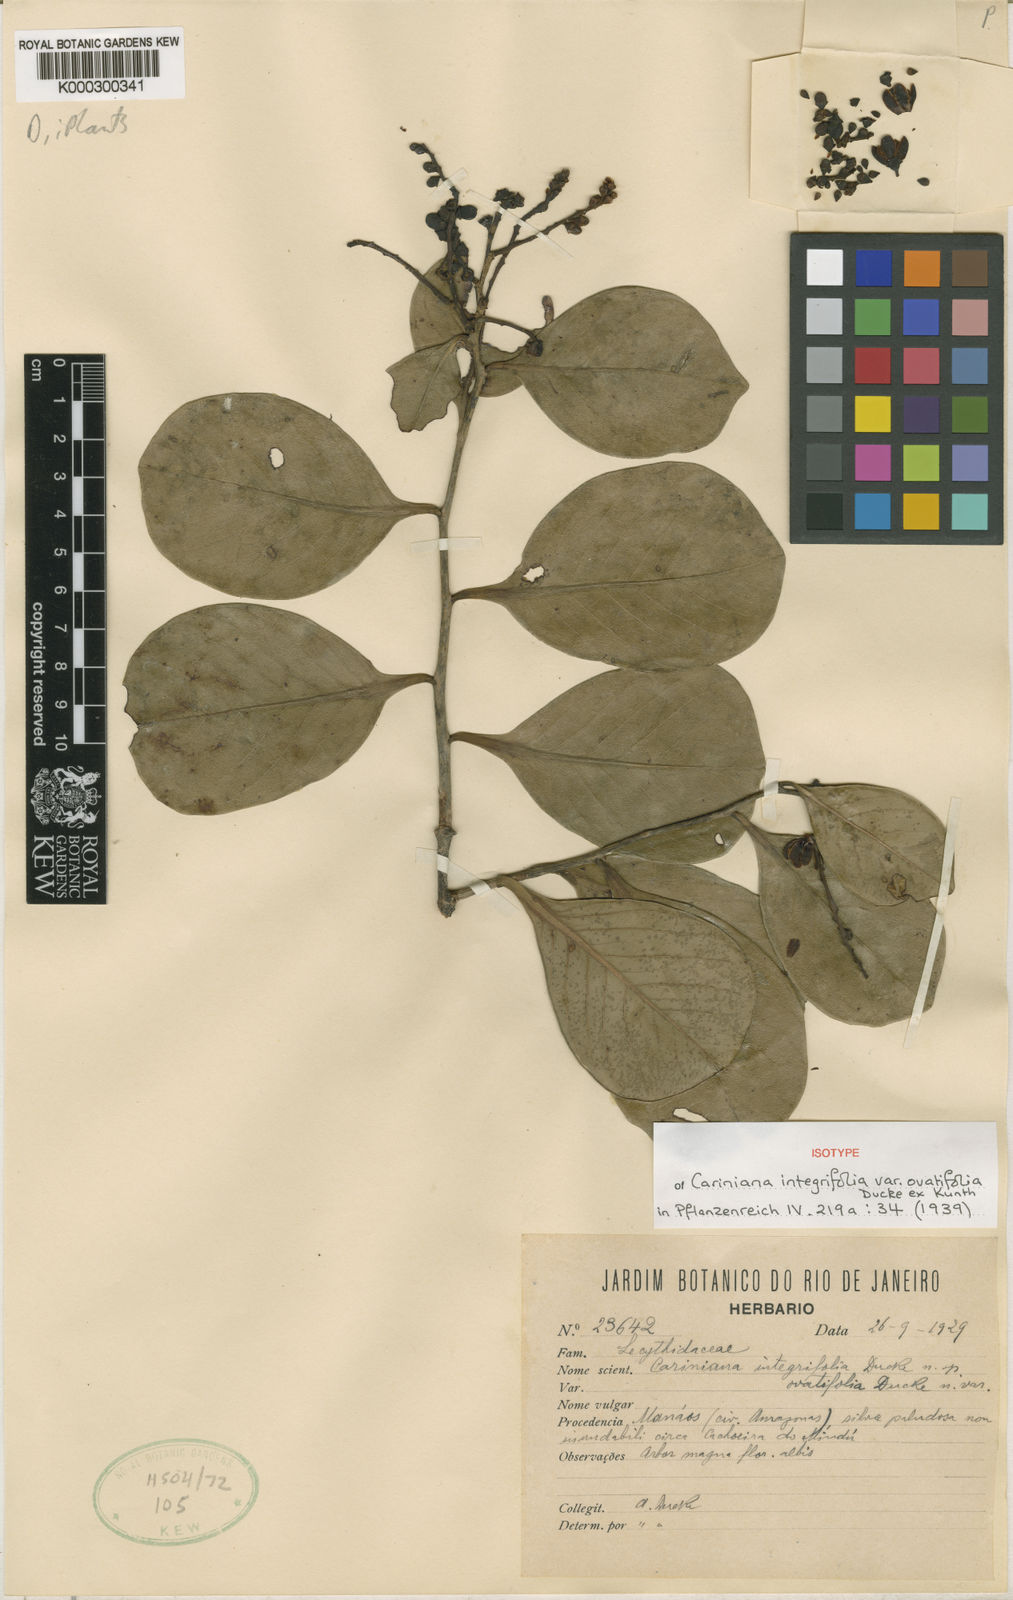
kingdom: Plantae
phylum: Tracheophyta
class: Magnoliopsida
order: Ericales
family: Lecythidaceae
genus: Allantoma
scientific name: Allantoma integrifolia
